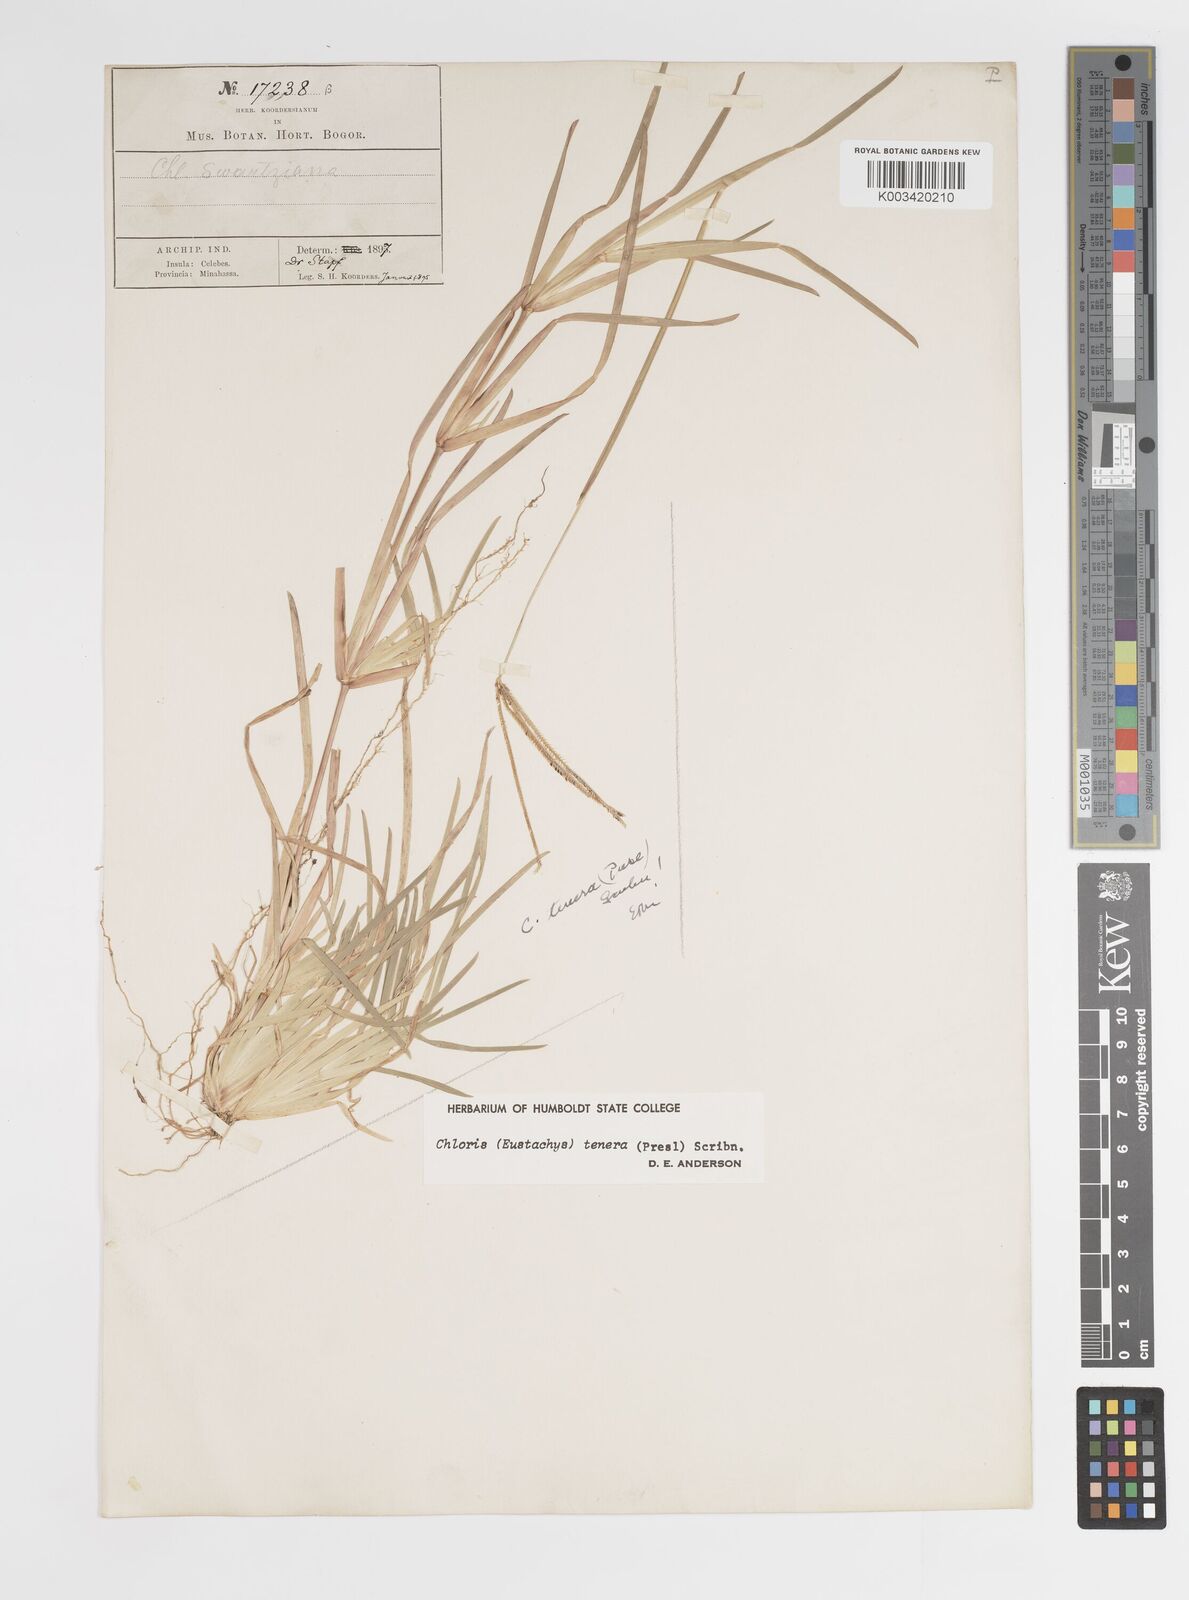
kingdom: Plantae
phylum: Tracheophyta
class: Liliopsida
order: Poales
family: Poaceae
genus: Eustachys
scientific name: Eustachys tenera
